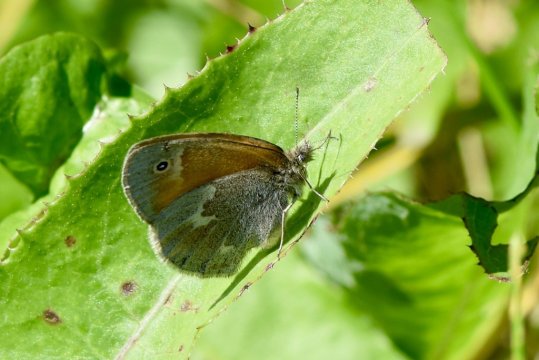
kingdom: Animalia
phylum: Arthropoda
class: Insecta
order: Lepidoptera
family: Nymphalidae
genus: Coenonympha
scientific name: Coenonympha california
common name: California Ringlet
